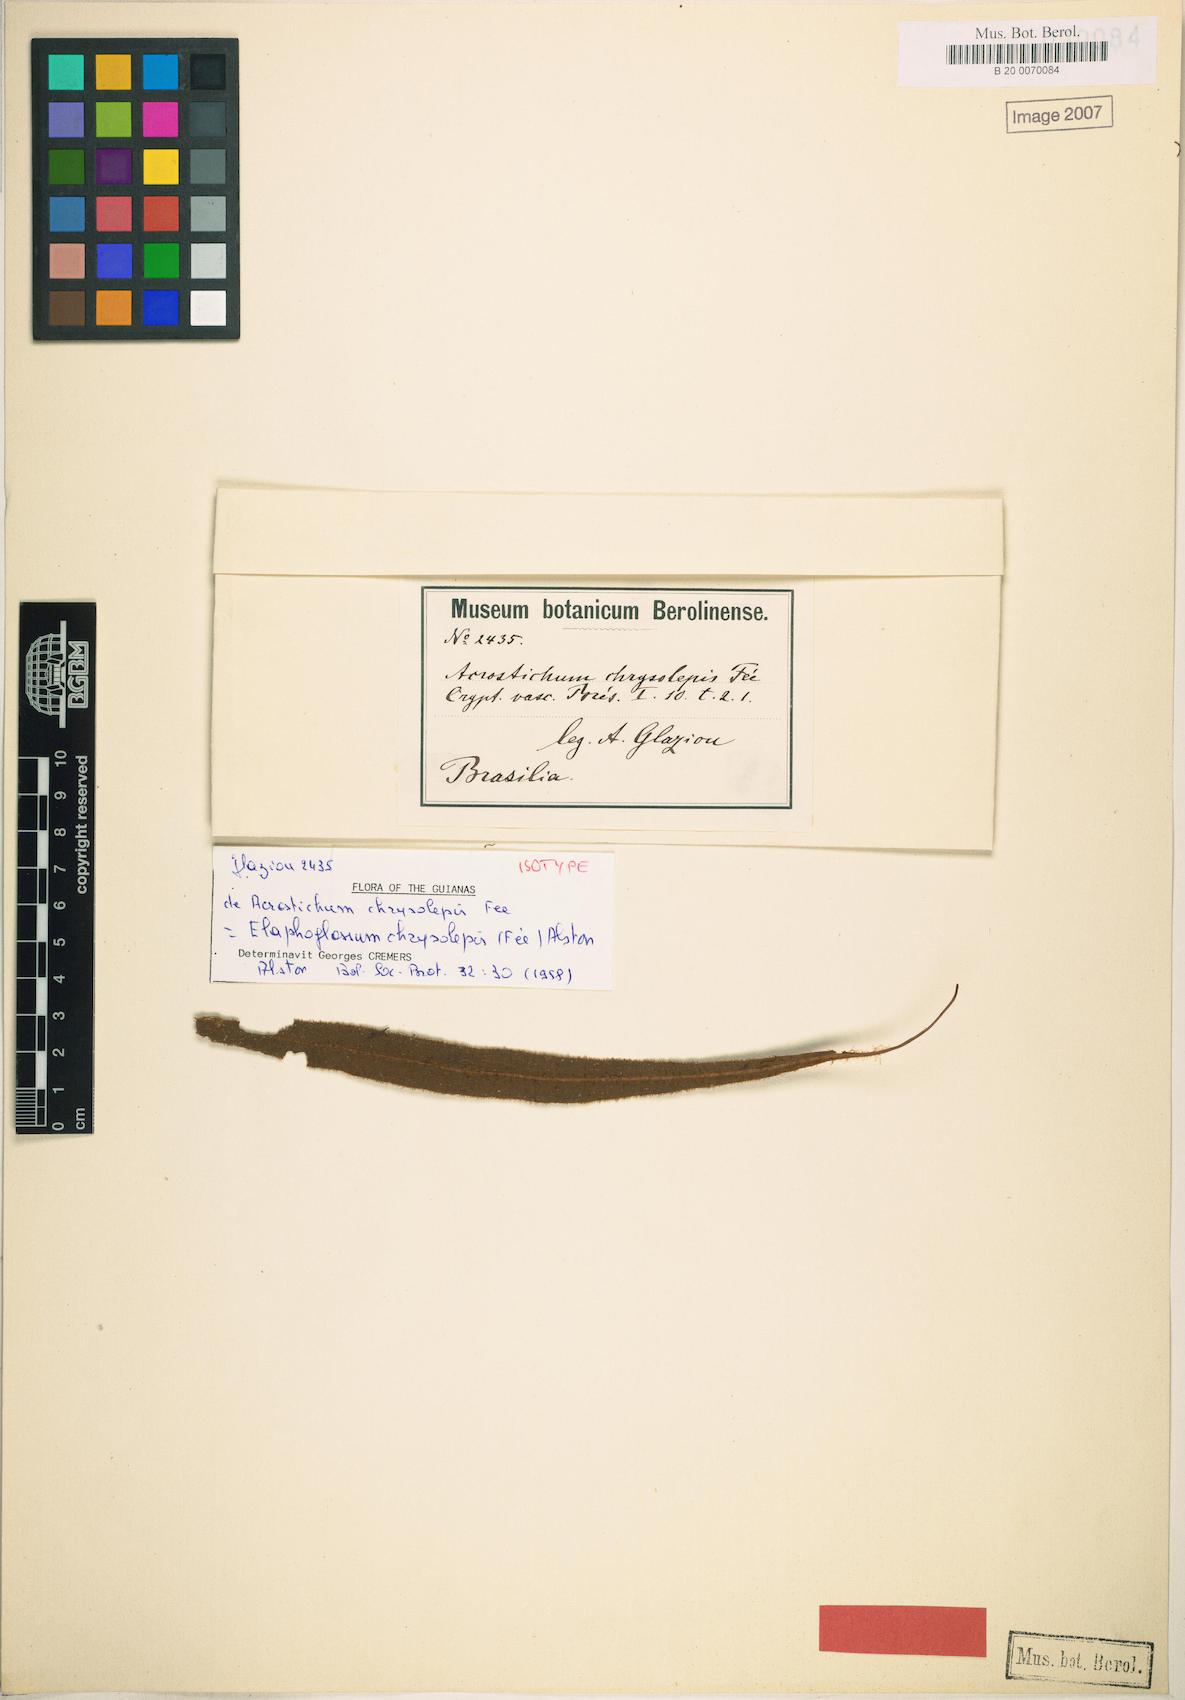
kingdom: Plantae
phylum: Tracheophyta
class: Polypodiopsida
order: Polypodiales
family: Dryopteridaceae
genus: Elaphoglossum
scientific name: Elaphoglossum chrysolepis
